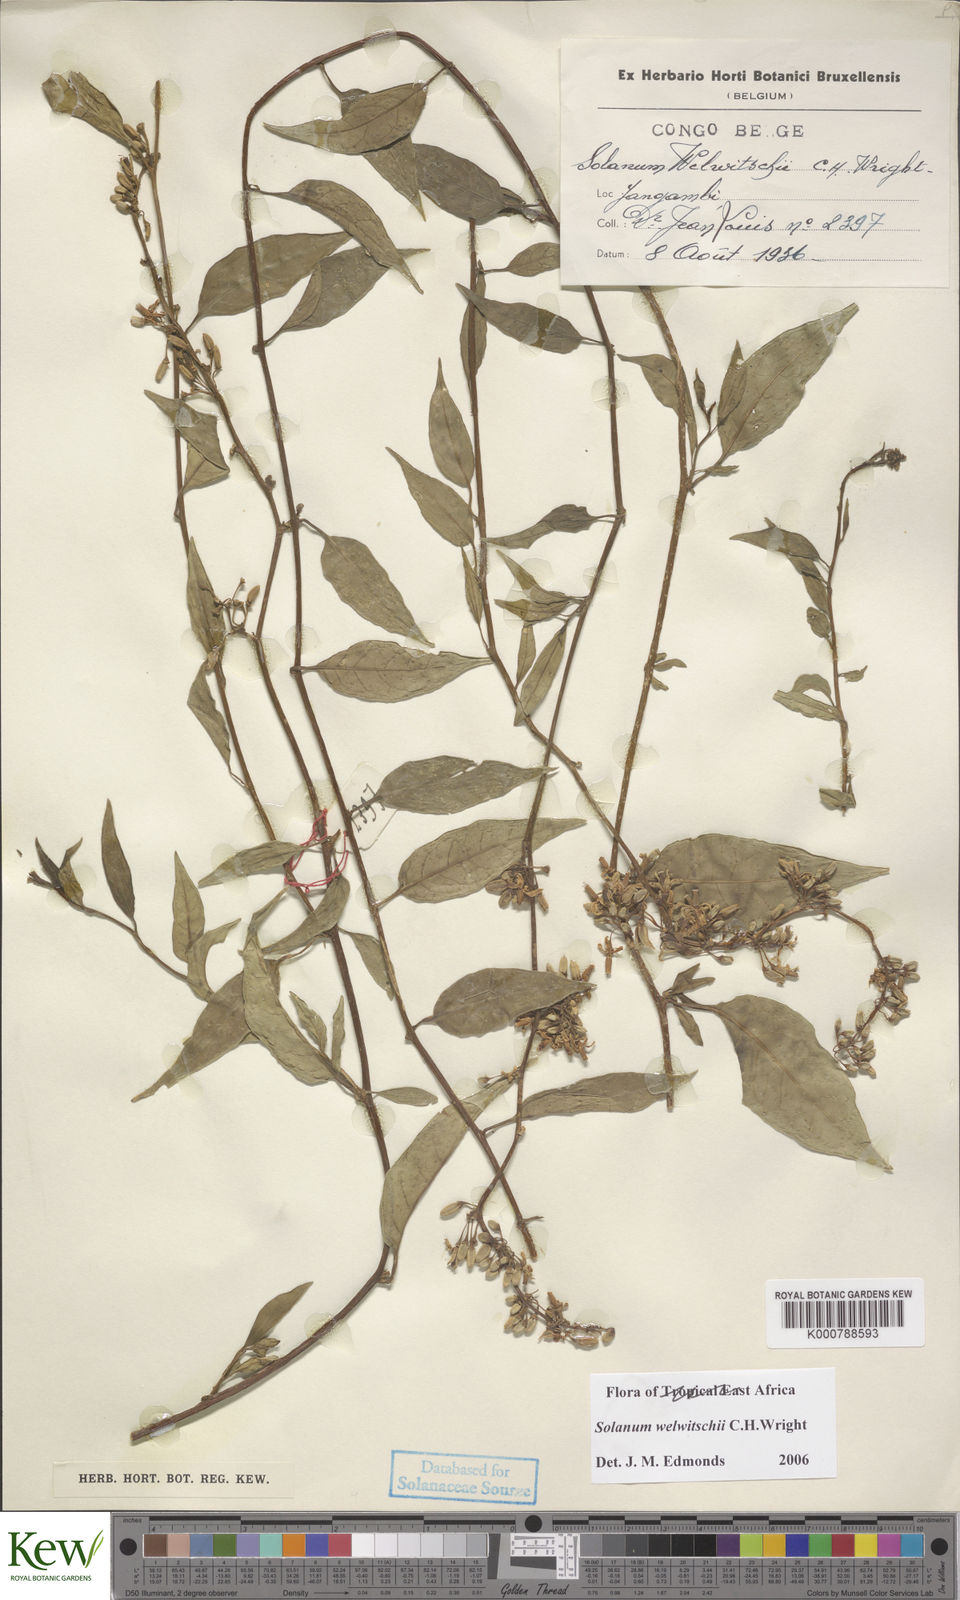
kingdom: Plantae
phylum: Tracheophyta
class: Magnoliopsida
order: Solanales
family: Solanaceae
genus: Solanum
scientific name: Solanum terminale
